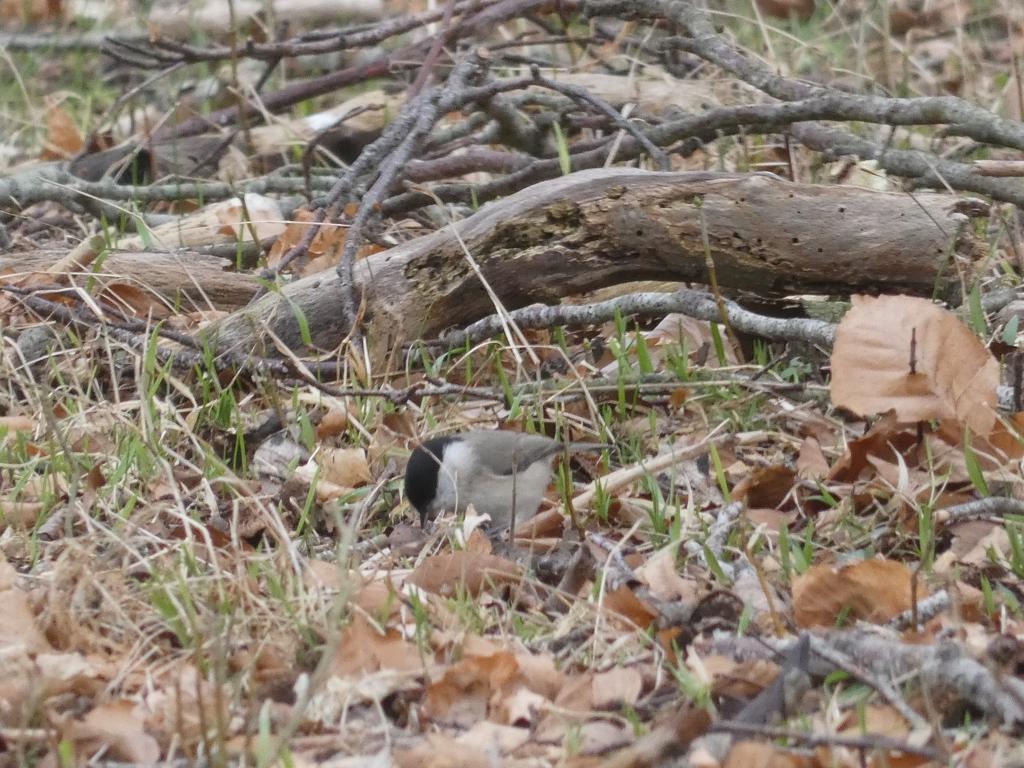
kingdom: Animalia
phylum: Chordata
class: Aves
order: Passeriformes
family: Paridae
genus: Poecile
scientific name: Poecile palustris
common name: Sumpmejse
